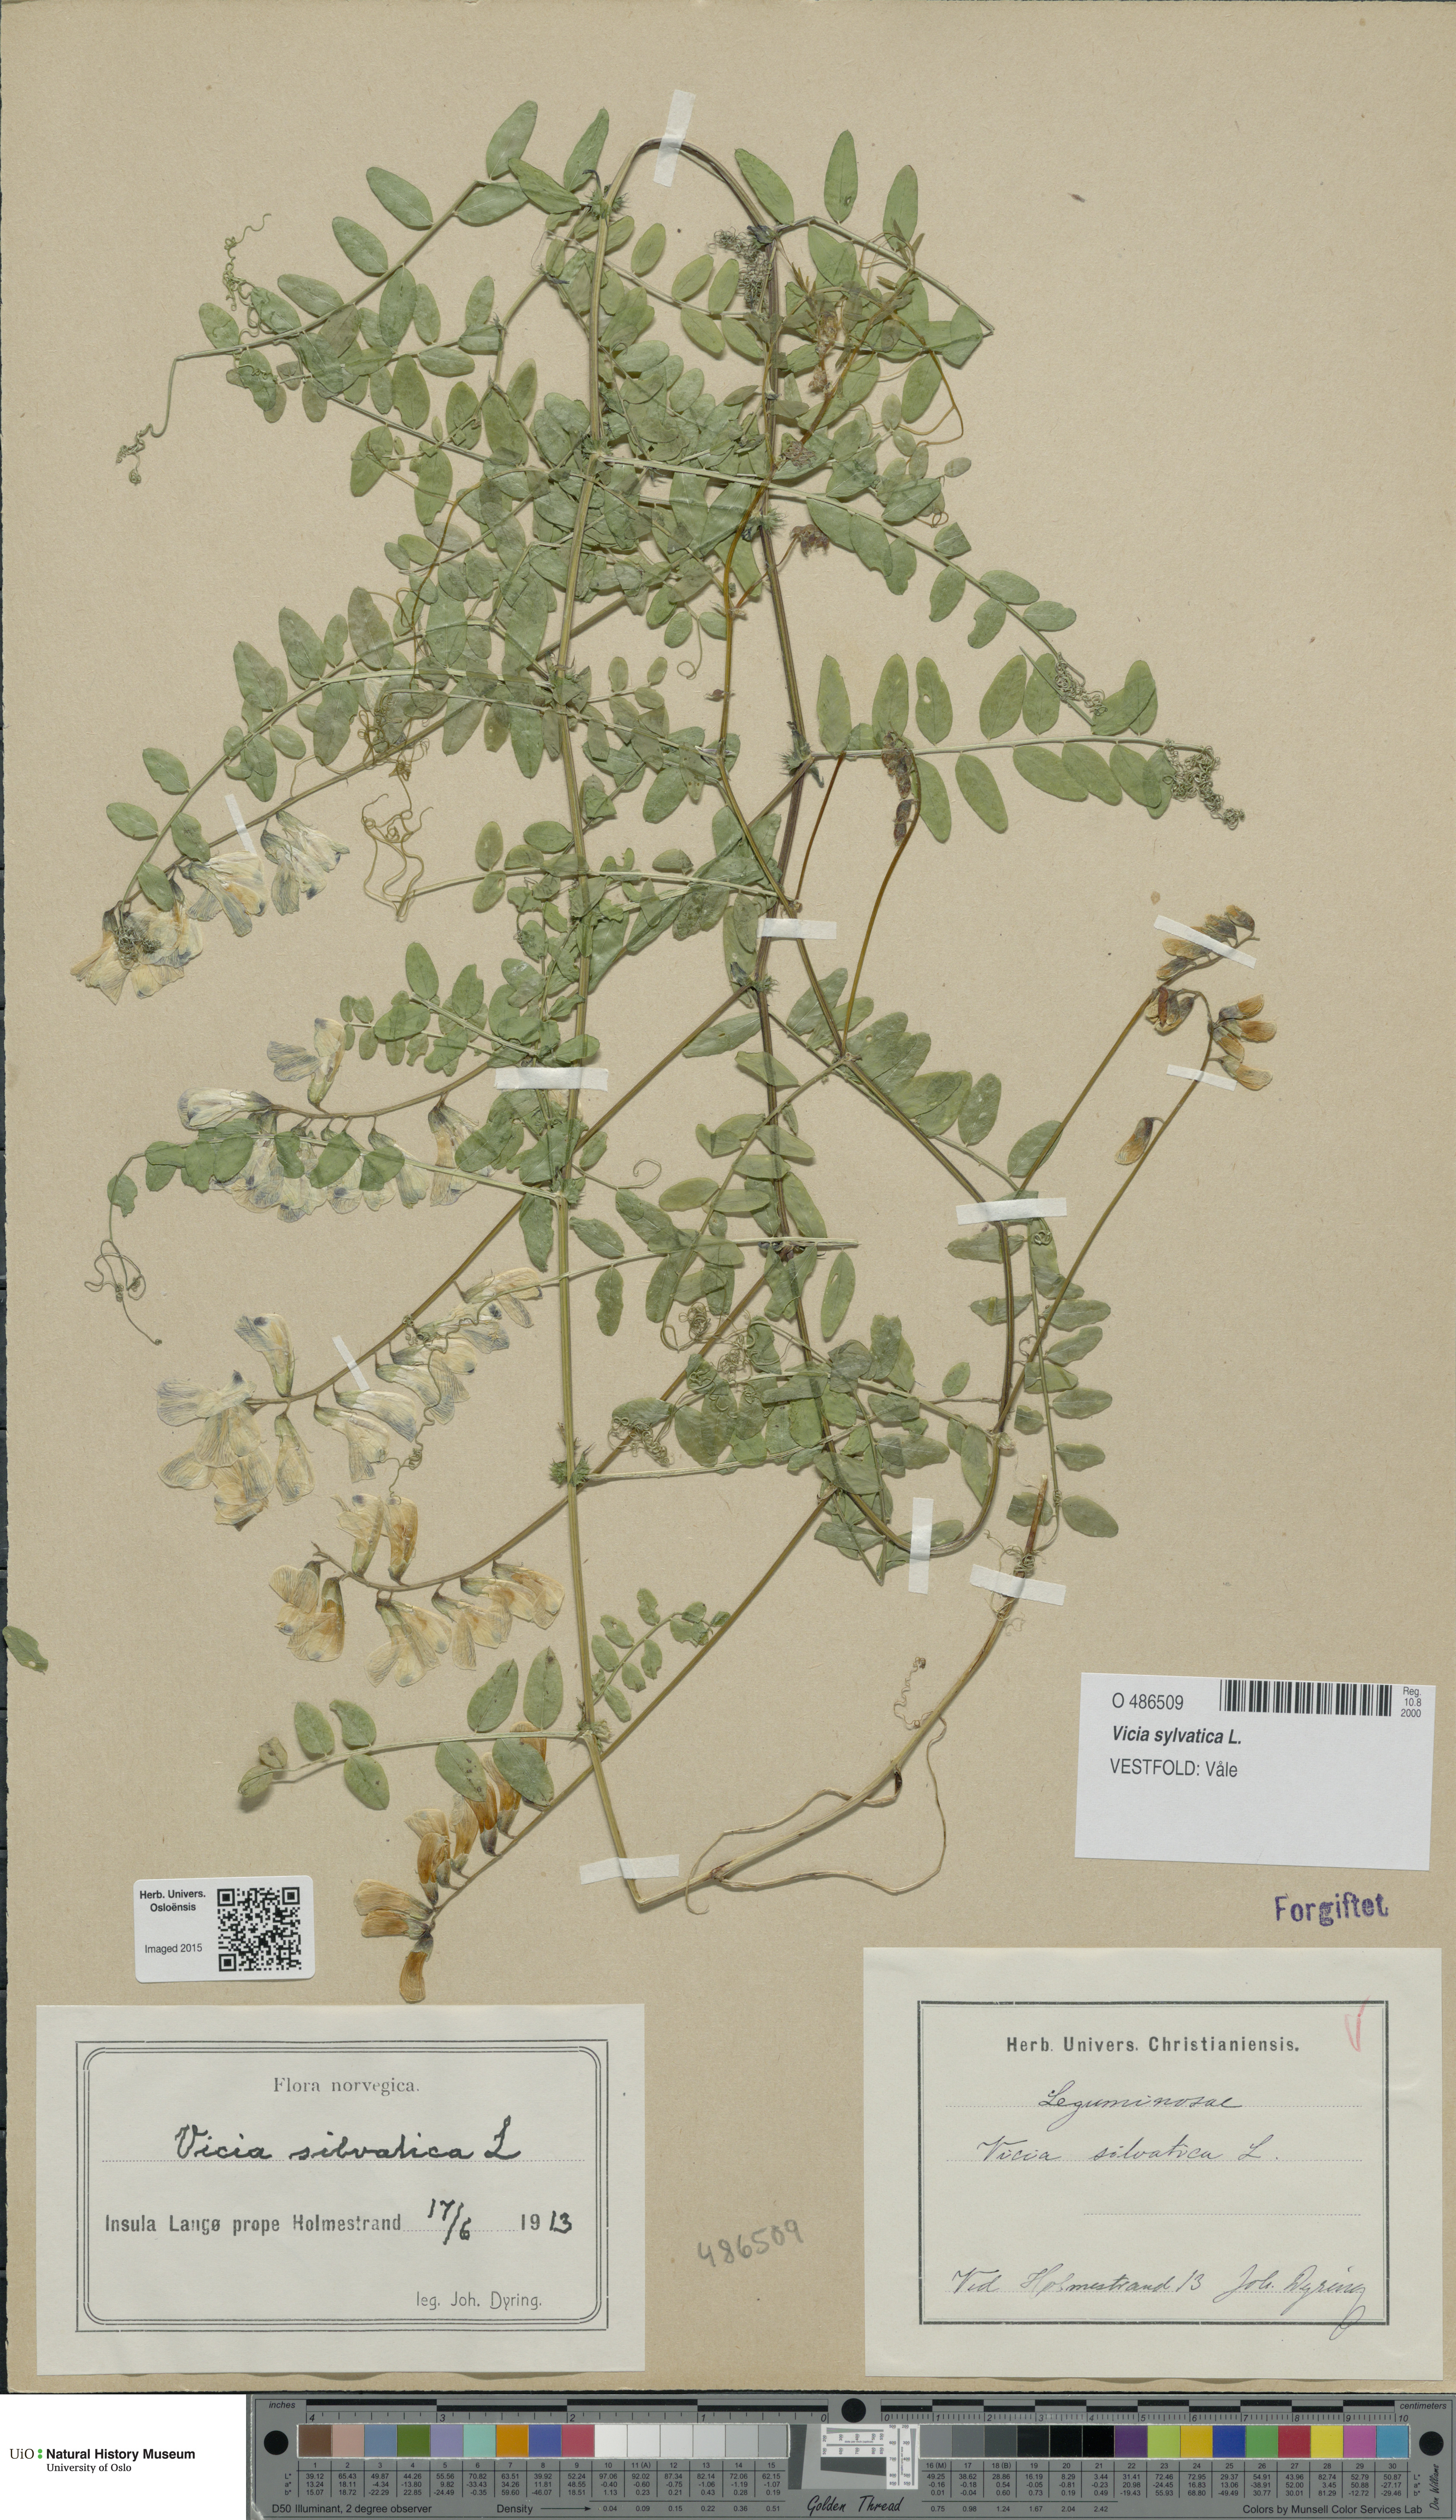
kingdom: Plantae
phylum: Tracheophyta
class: Magnoliopsida
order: Fabales
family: Fabaceae
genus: Vicia
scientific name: Vicia sylvatica
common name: Wood vetch
